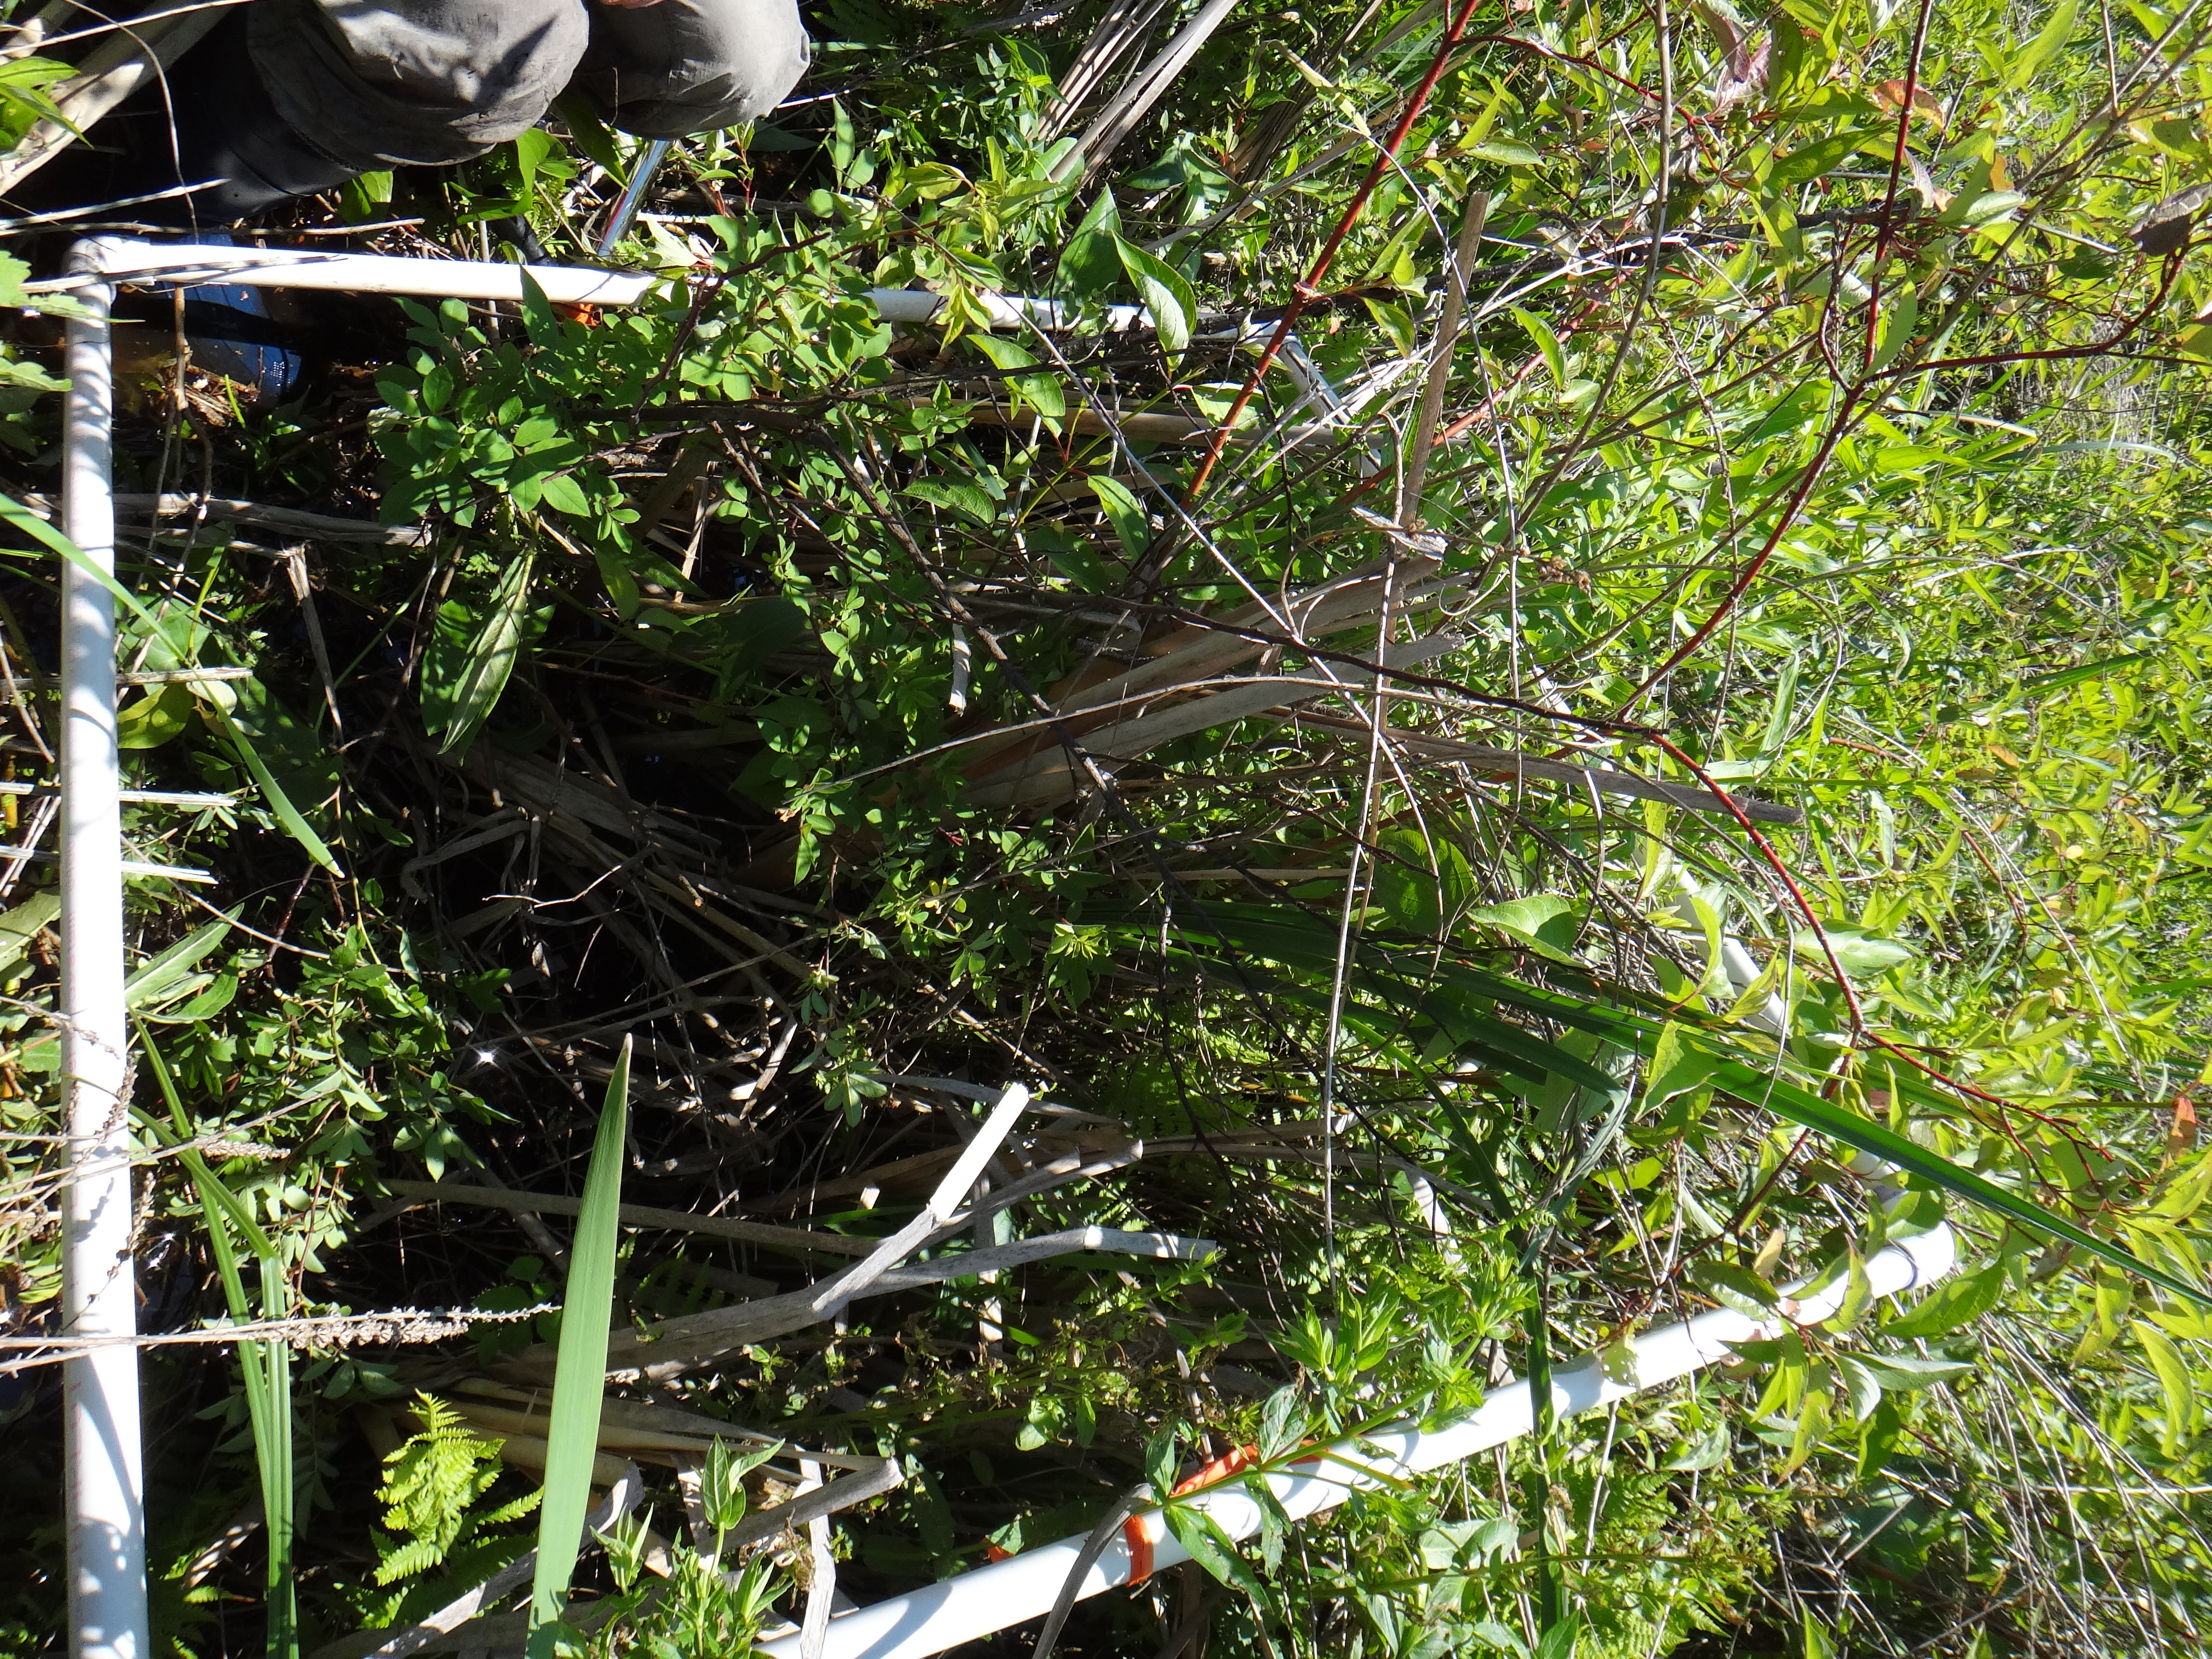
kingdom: Plantae
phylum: Tracheophyta
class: Magnoliopsida
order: Myrtales
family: Lythraceae
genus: Lythrum
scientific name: Lythrum salicaria
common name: Purple loosestrife
